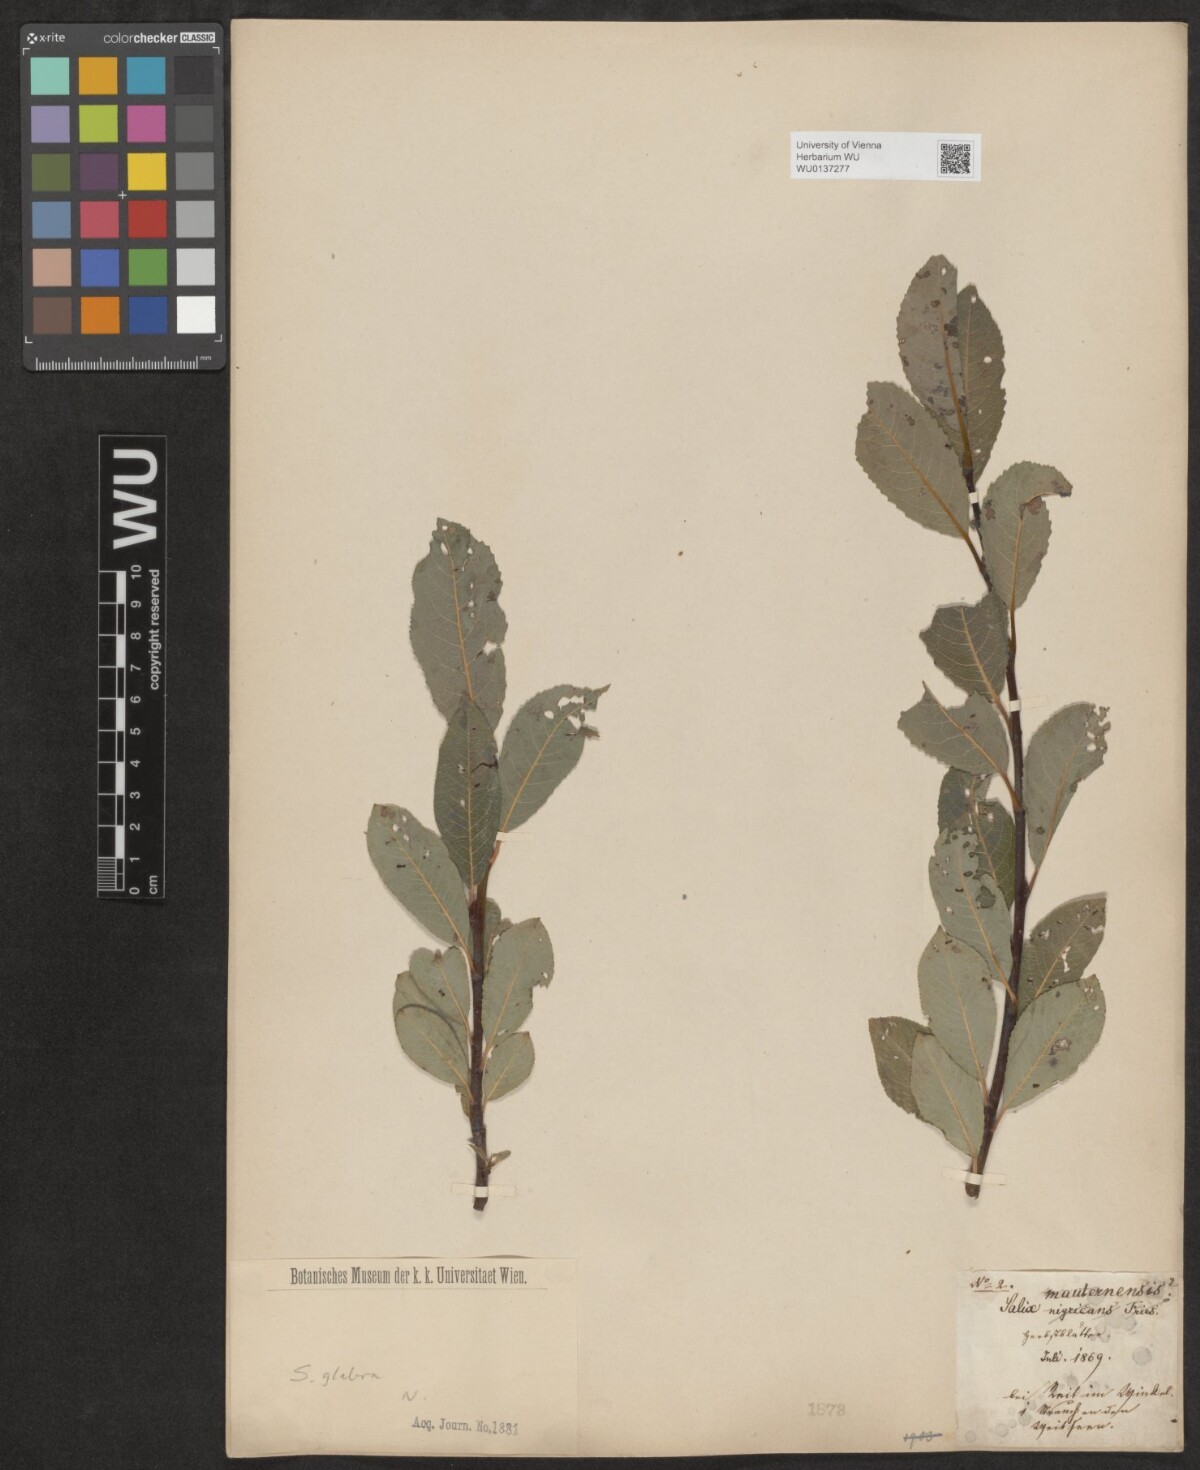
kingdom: Plantae
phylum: Tracheophyta
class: Magnoliopsida
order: Malpighiales
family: Salicaceae
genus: Salix
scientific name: Salix glabra
